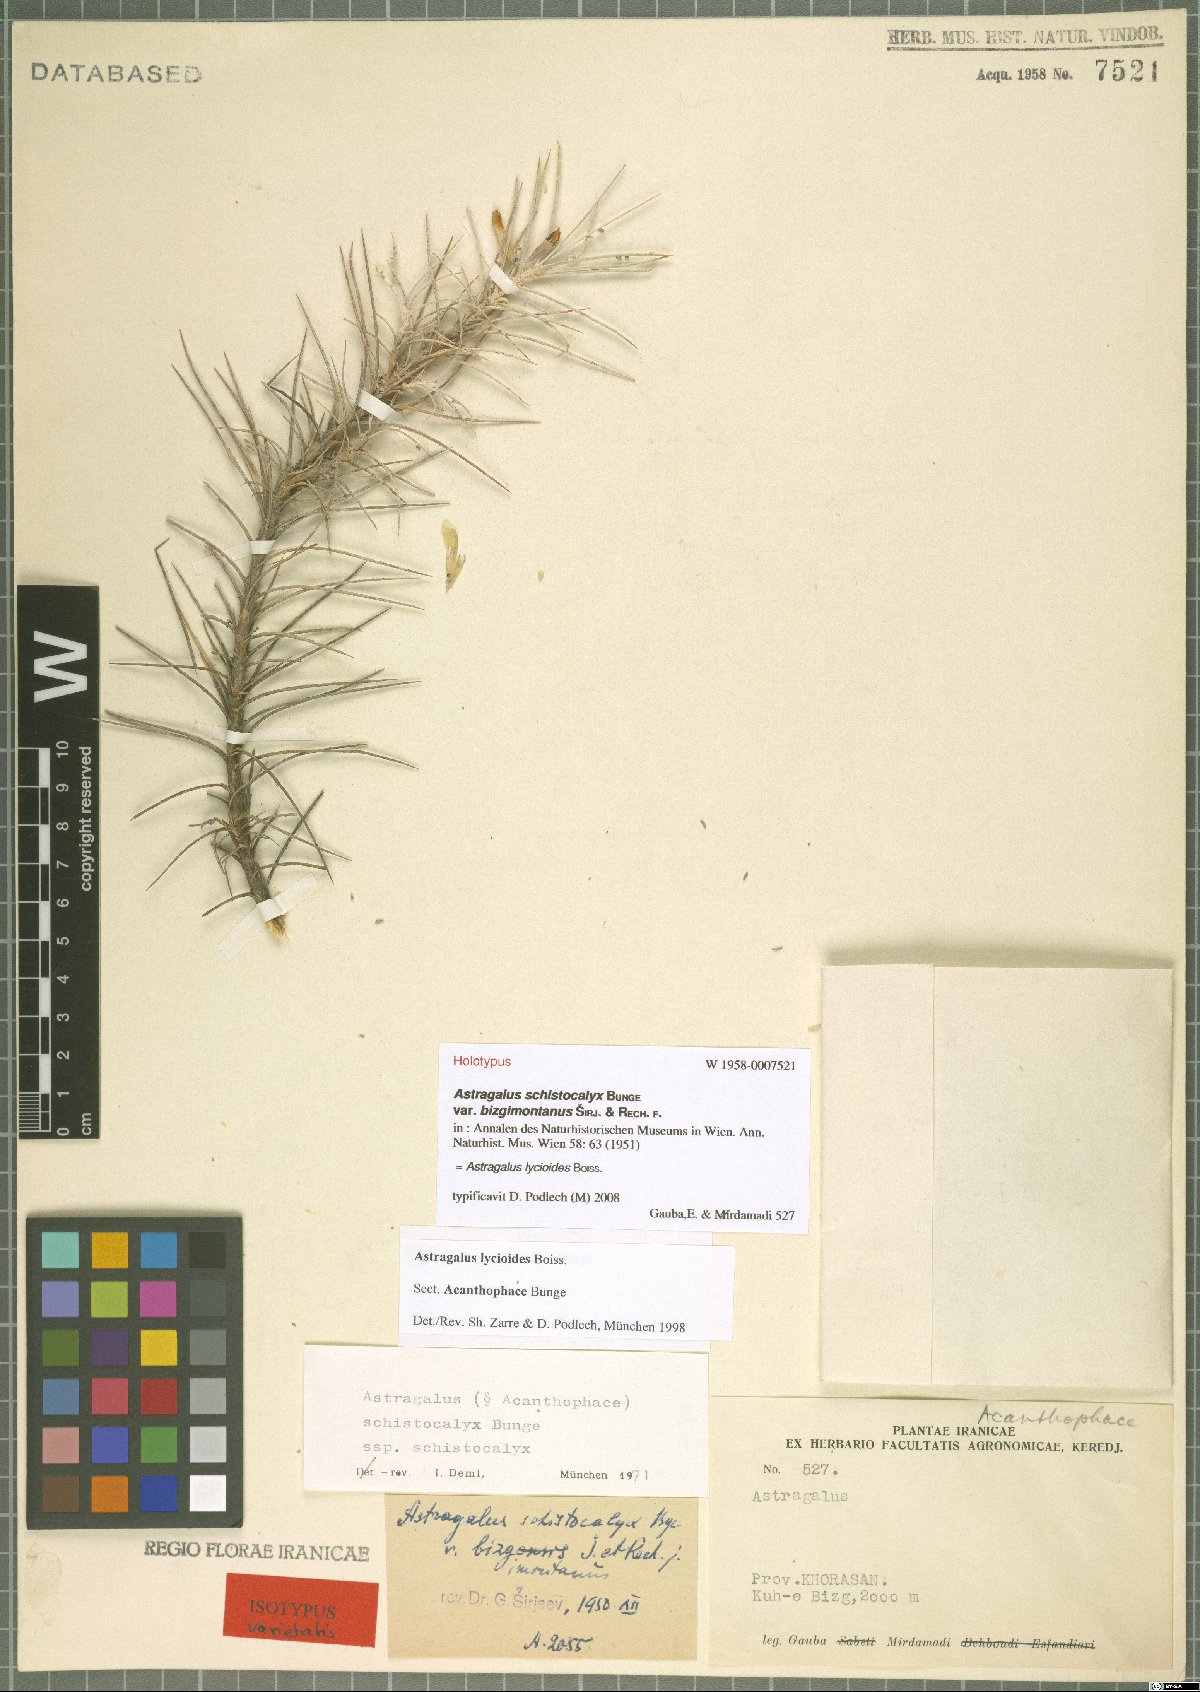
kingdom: Plantae
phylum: Tracheophyta
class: Magnoliopsida
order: Fabales
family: Fabaceae
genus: Astragalus
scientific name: Astragalus lycioides
